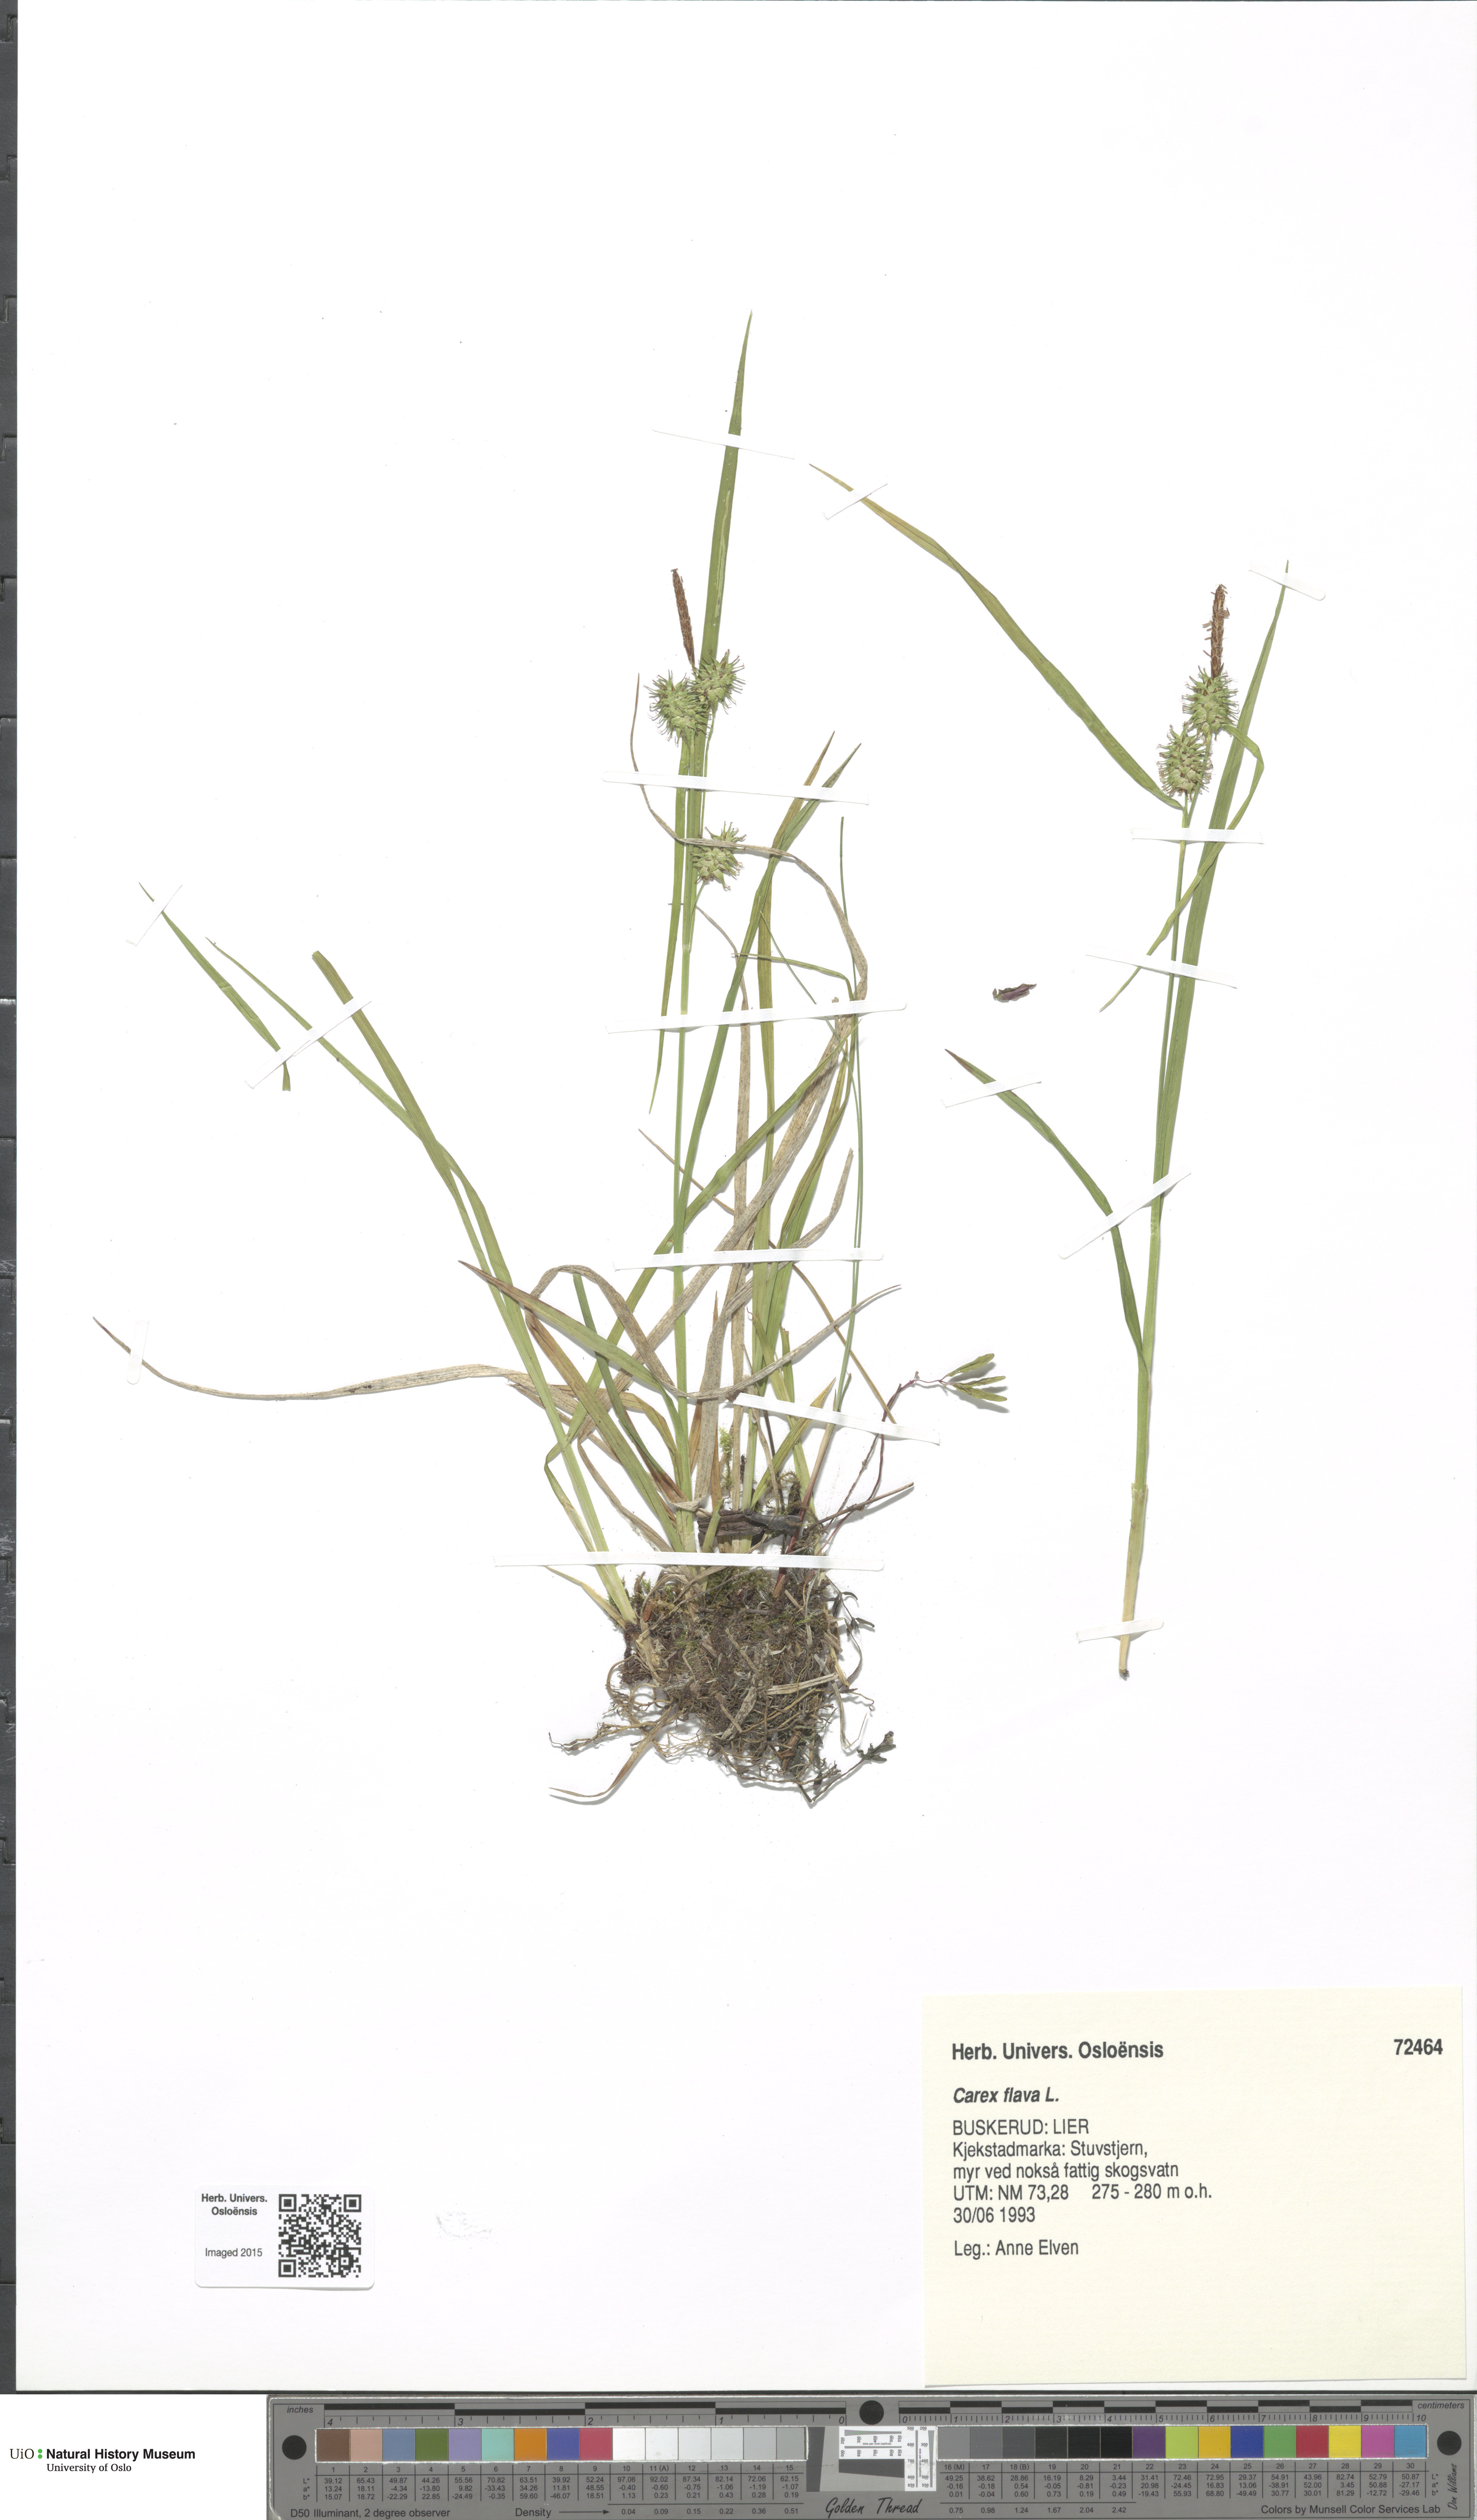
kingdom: Plantae
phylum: Tracheophyta
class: Liliopsida
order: Poales
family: Cyperaceae
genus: Carex
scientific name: Carex flava
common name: Large yellow-sedge
